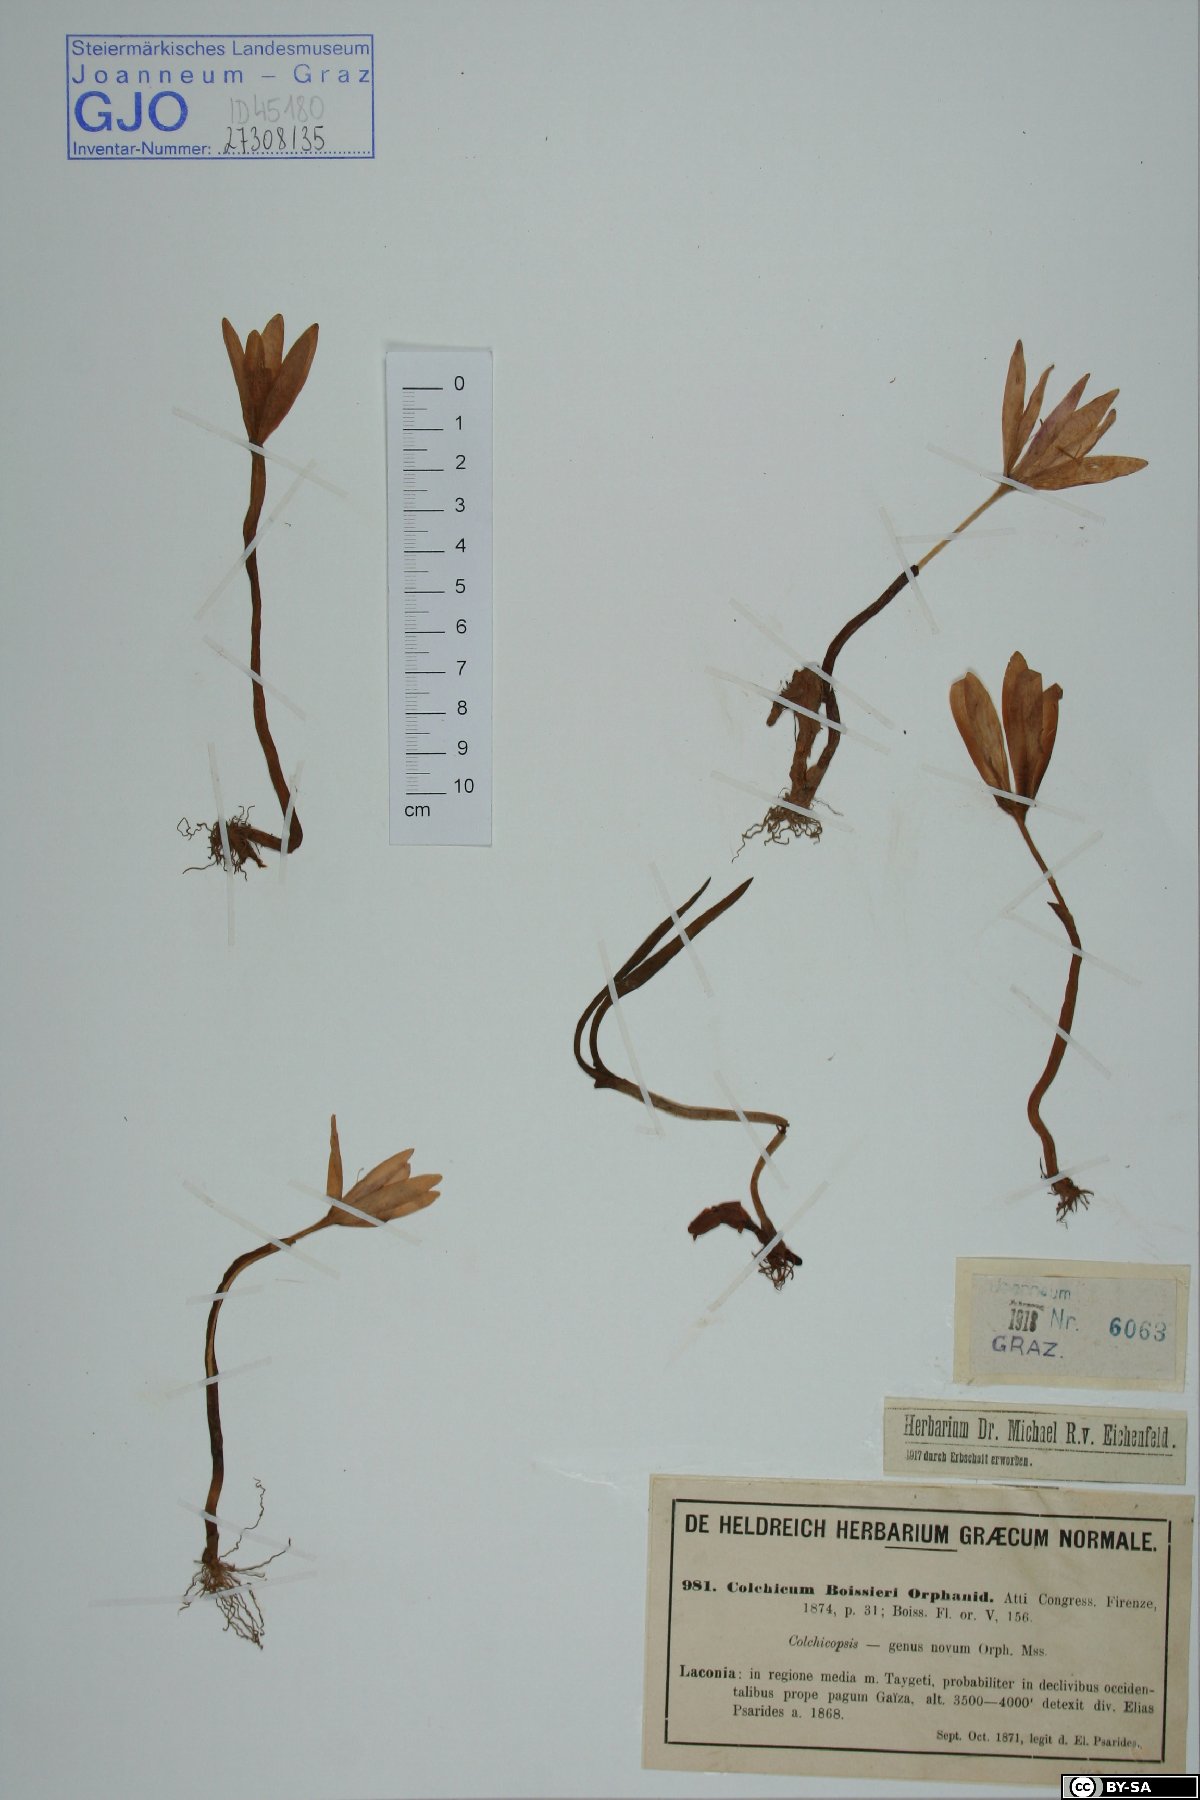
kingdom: Plantae
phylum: Tracheophyta
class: Liliopsida
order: Liliales
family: Colchicaceae
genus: Colchicum
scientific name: Colchicum boissieri
